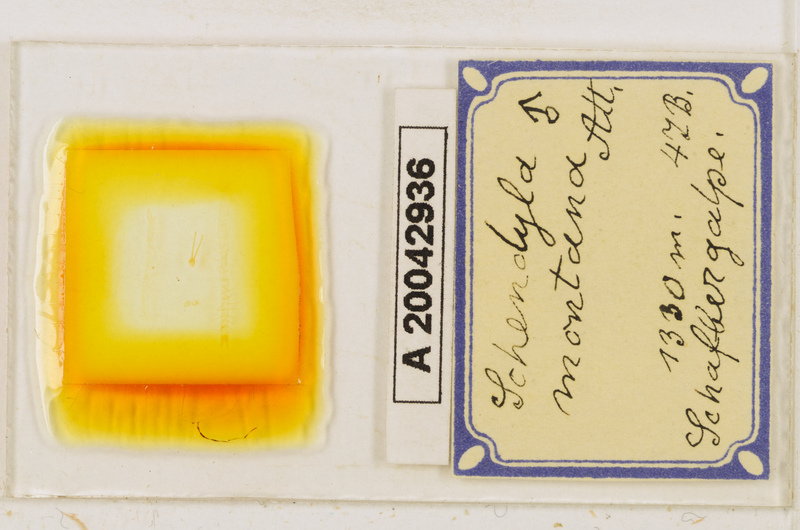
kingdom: Animalia
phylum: Arthropoda
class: Chilopoda
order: Geophilomorpha
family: Schendylidae
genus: Schendyla
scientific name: Schendyla montana
